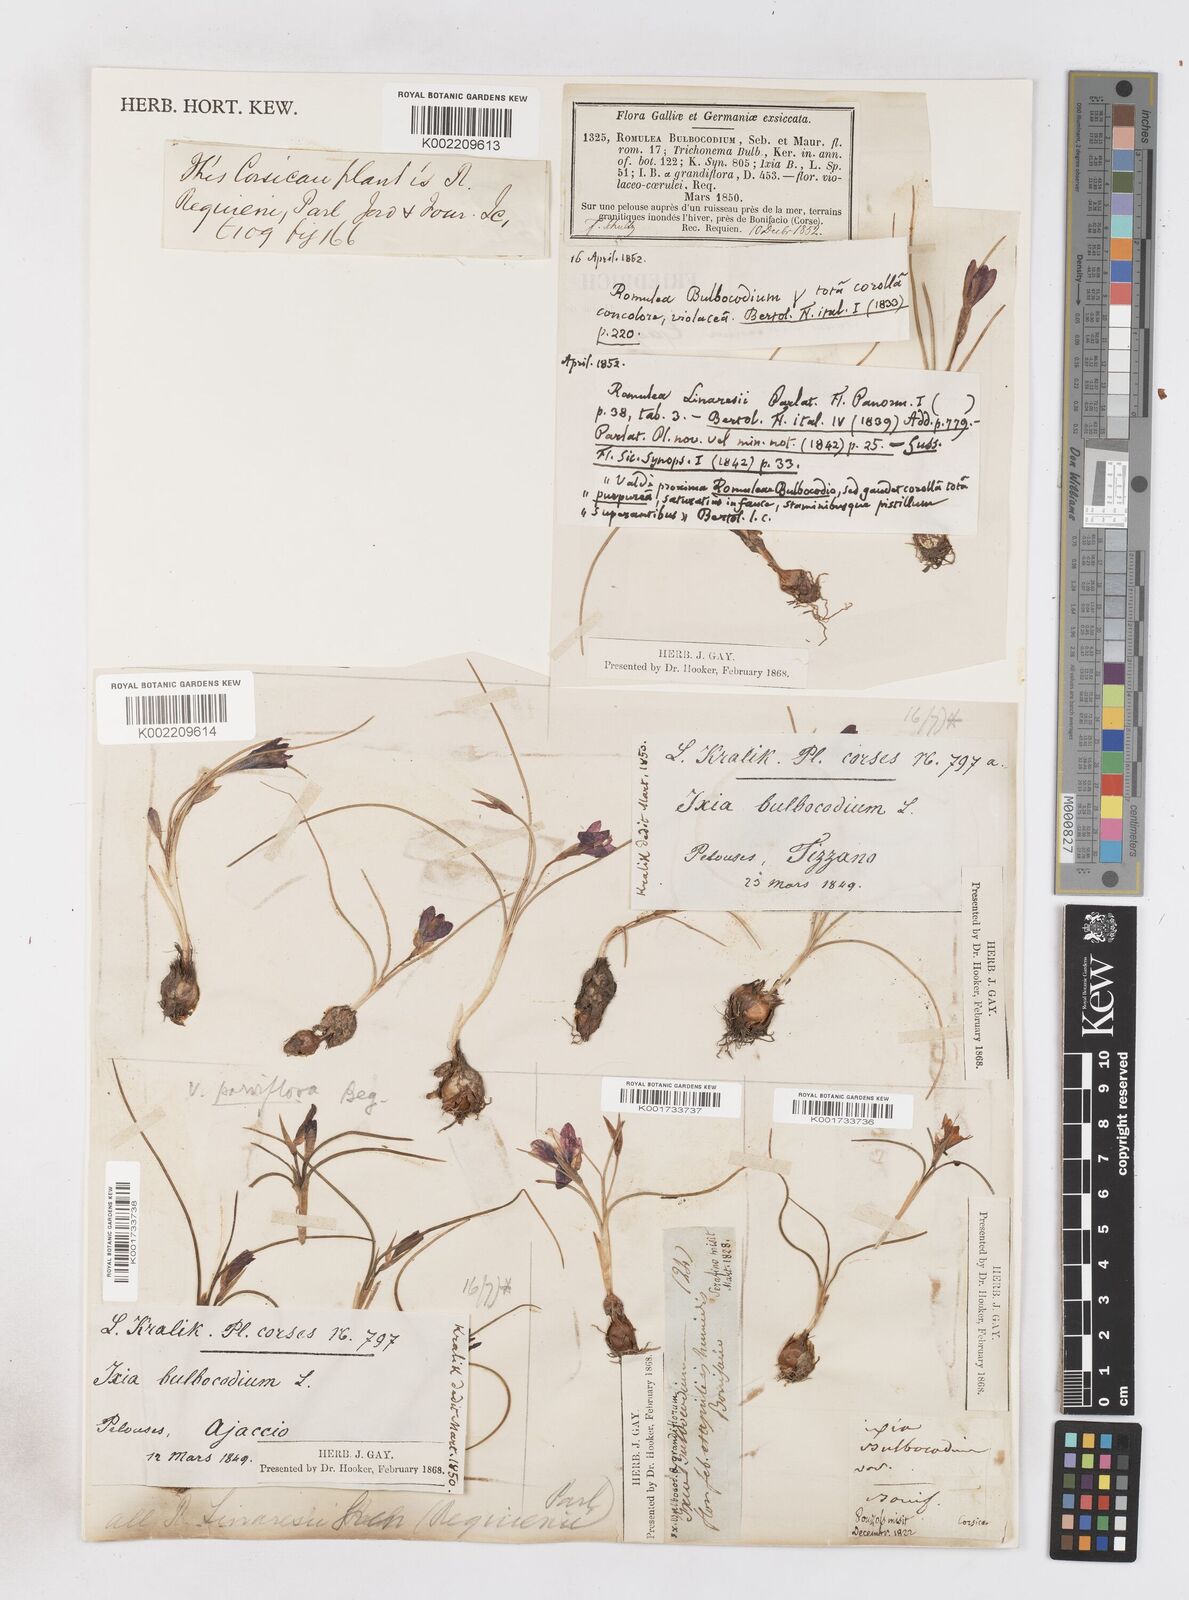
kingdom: Plantae
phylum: Tracheophyta
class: Liliopsida
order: Asparagales
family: Iridaceae
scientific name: Iridaceae
